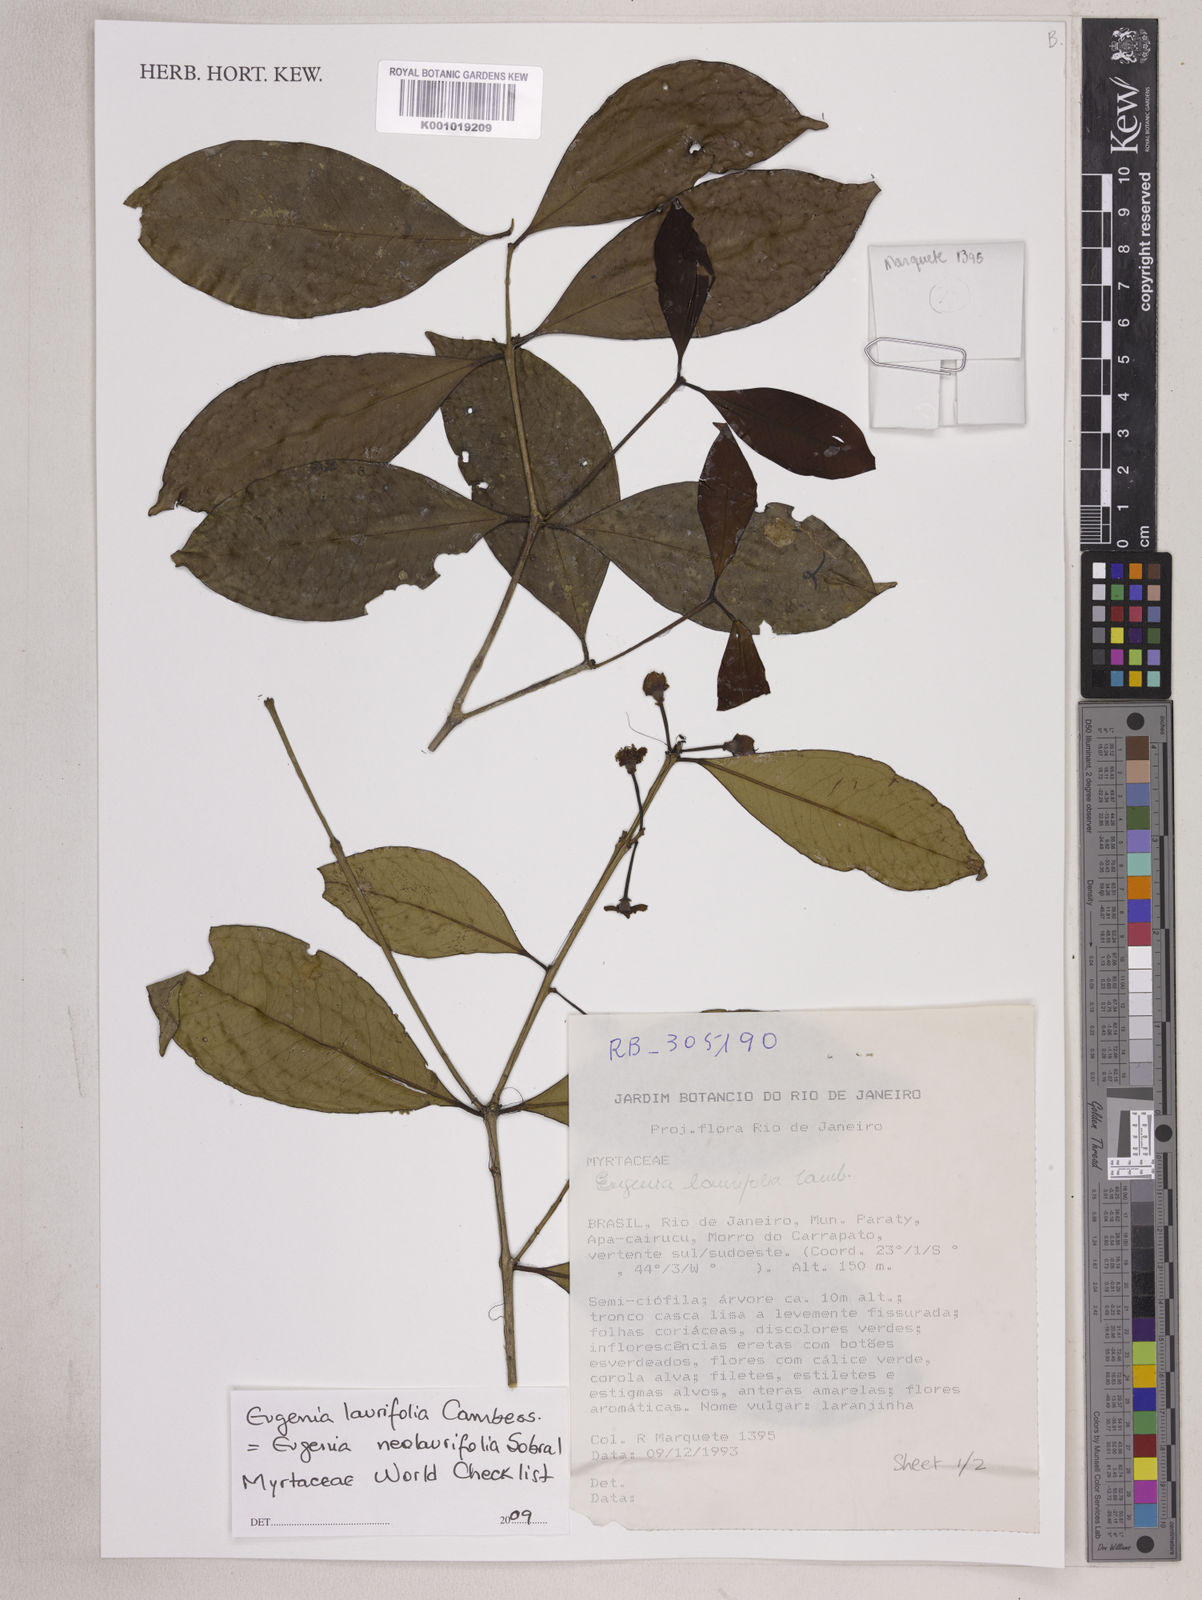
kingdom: Plantae
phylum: Tracheophyta
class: Magnoliopsida
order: Myrtales
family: Myrtaceae
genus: Eugenia
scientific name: Eugenia neolaurifolia
